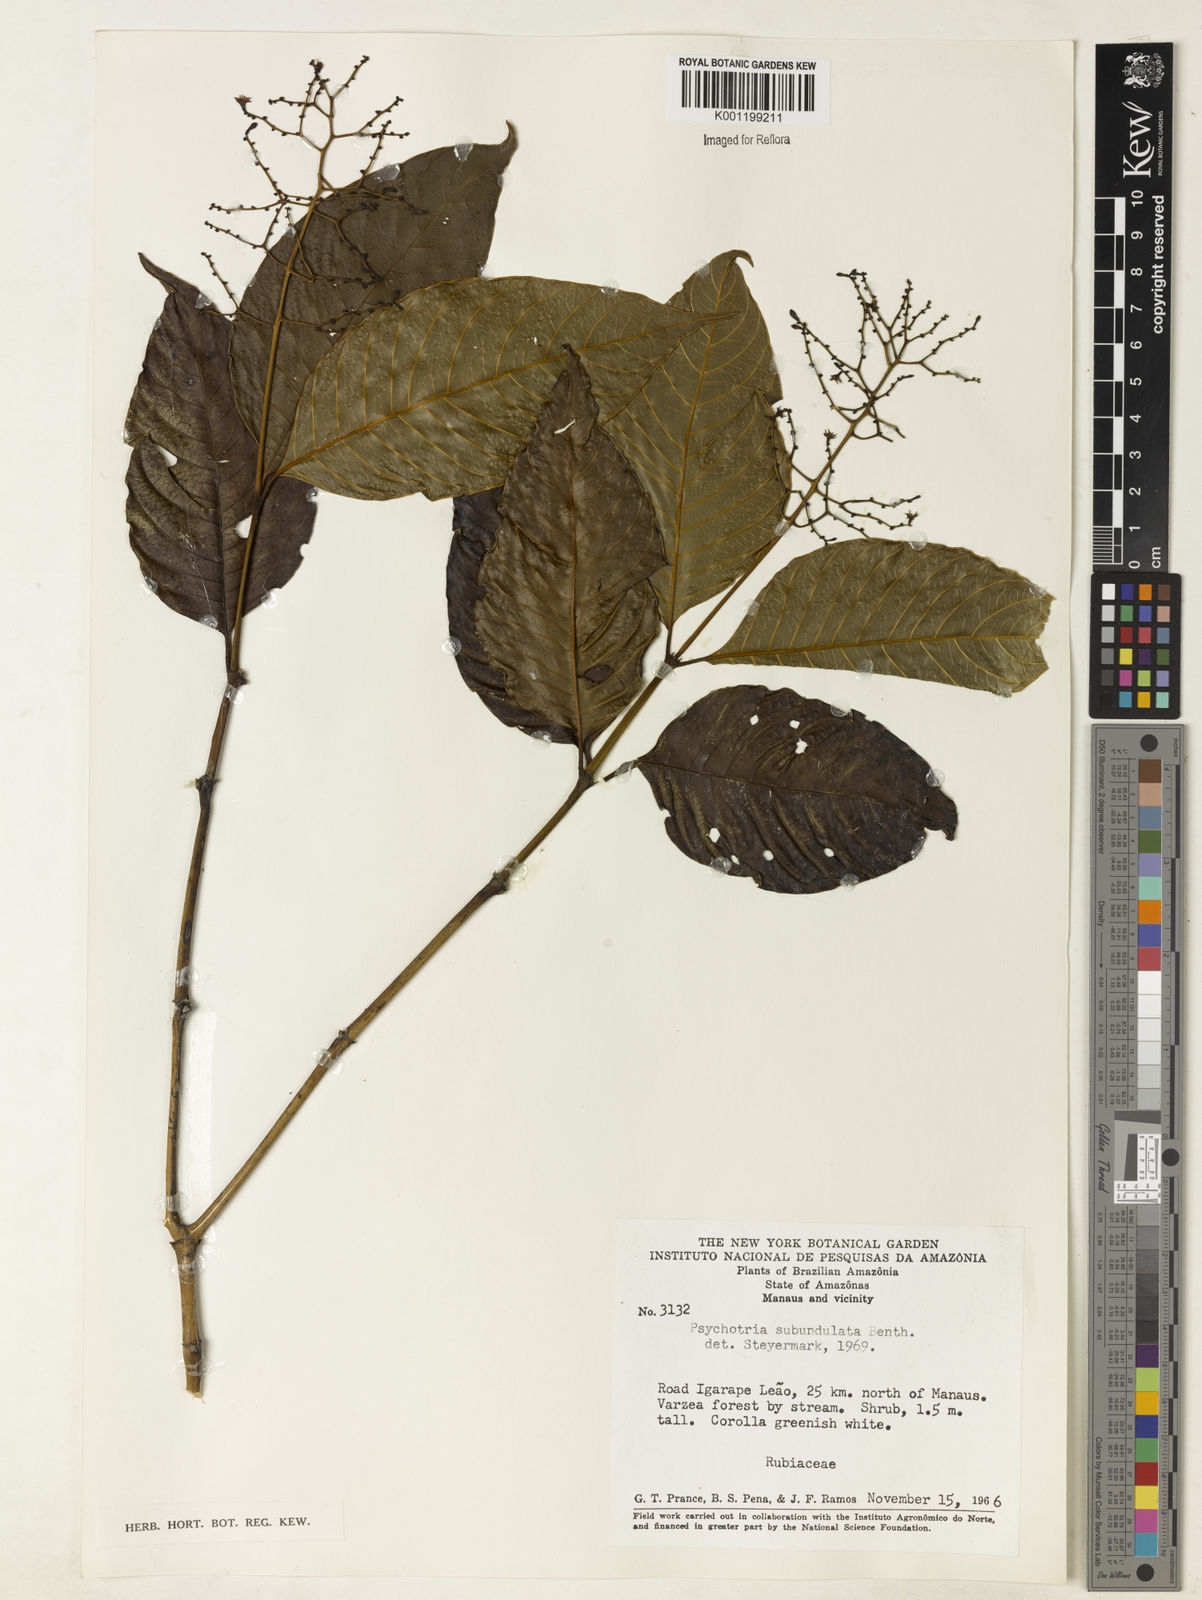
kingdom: Plantae
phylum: Tracheophyta
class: Magnoliopsida
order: Gentianales
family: Rubiaceae
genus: Palicourea
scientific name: Palicourea subundulata
